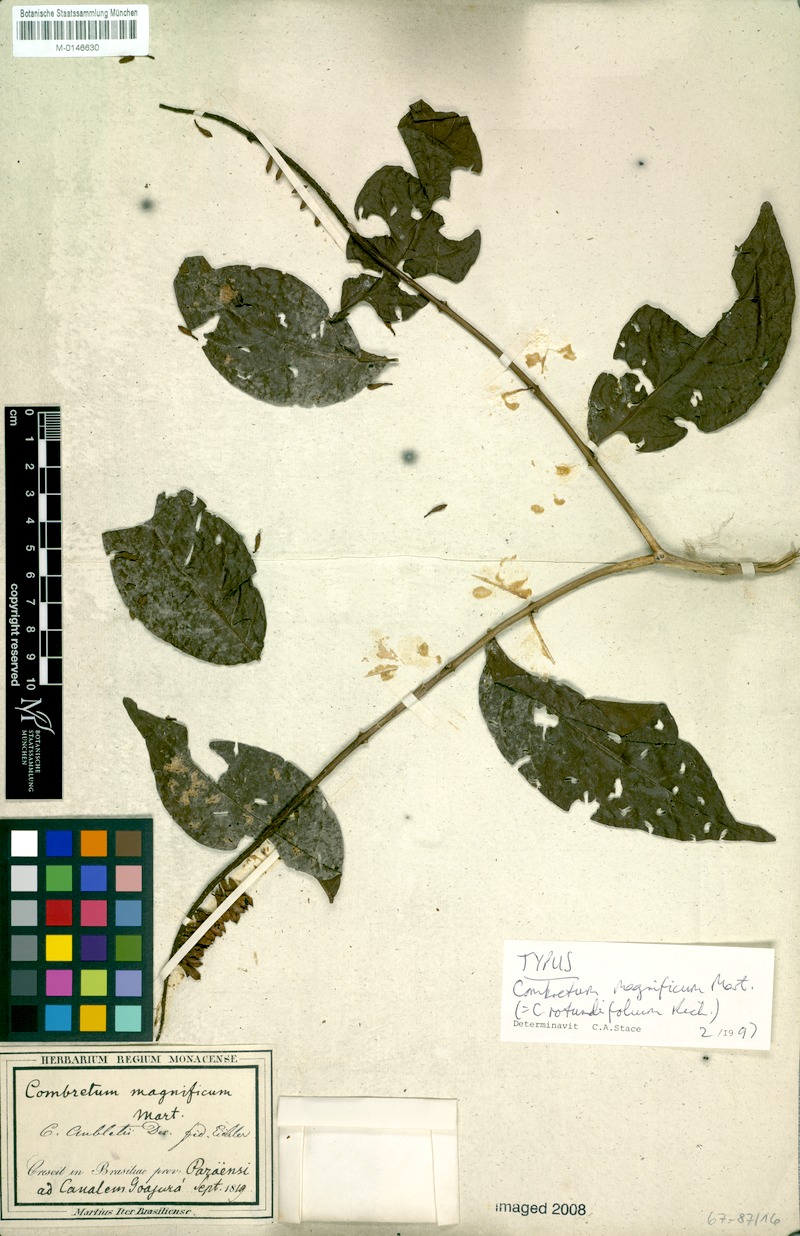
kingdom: Plantae
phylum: Tracheophyta
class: Magnoliopsida
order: Myrtales
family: Combretaceae
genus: Combretum
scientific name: Combretum rotundifolium
